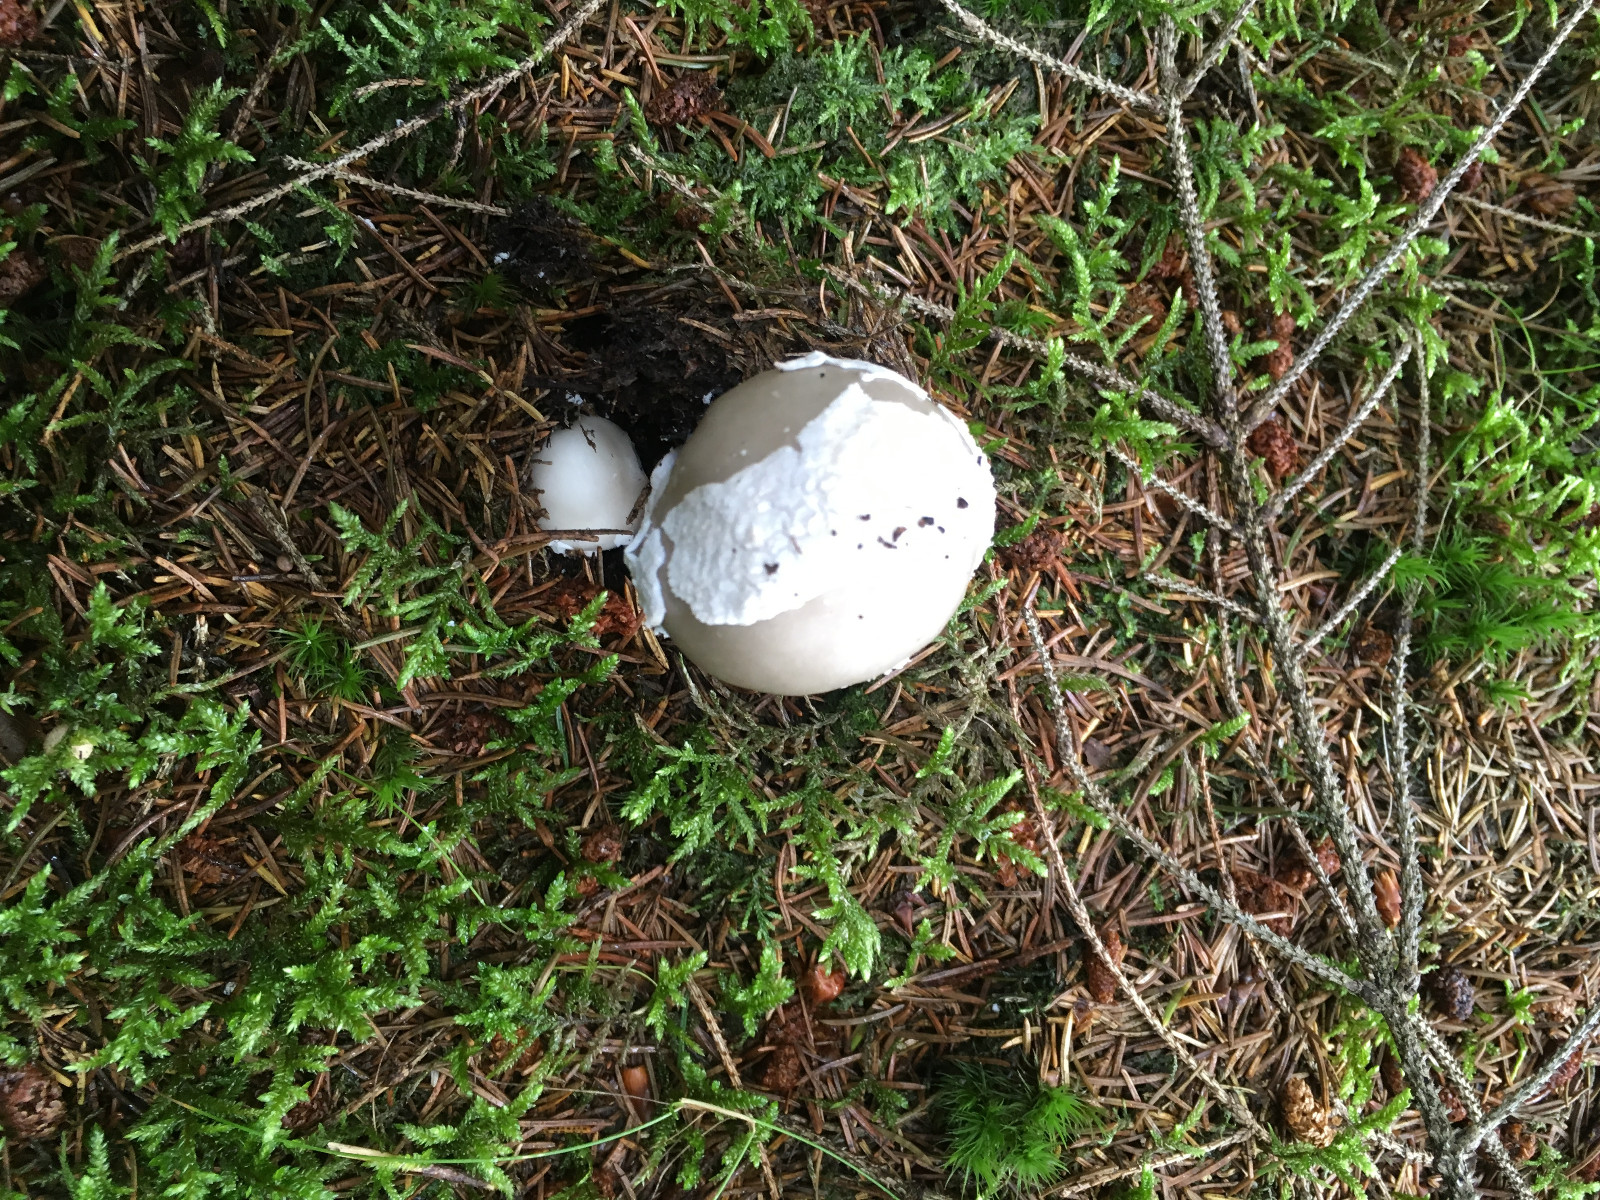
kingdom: Fungi
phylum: Basidiomycota
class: Agaricomycetes
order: Agaricales
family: Amanitaceae
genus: Amanita
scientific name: Amanita
